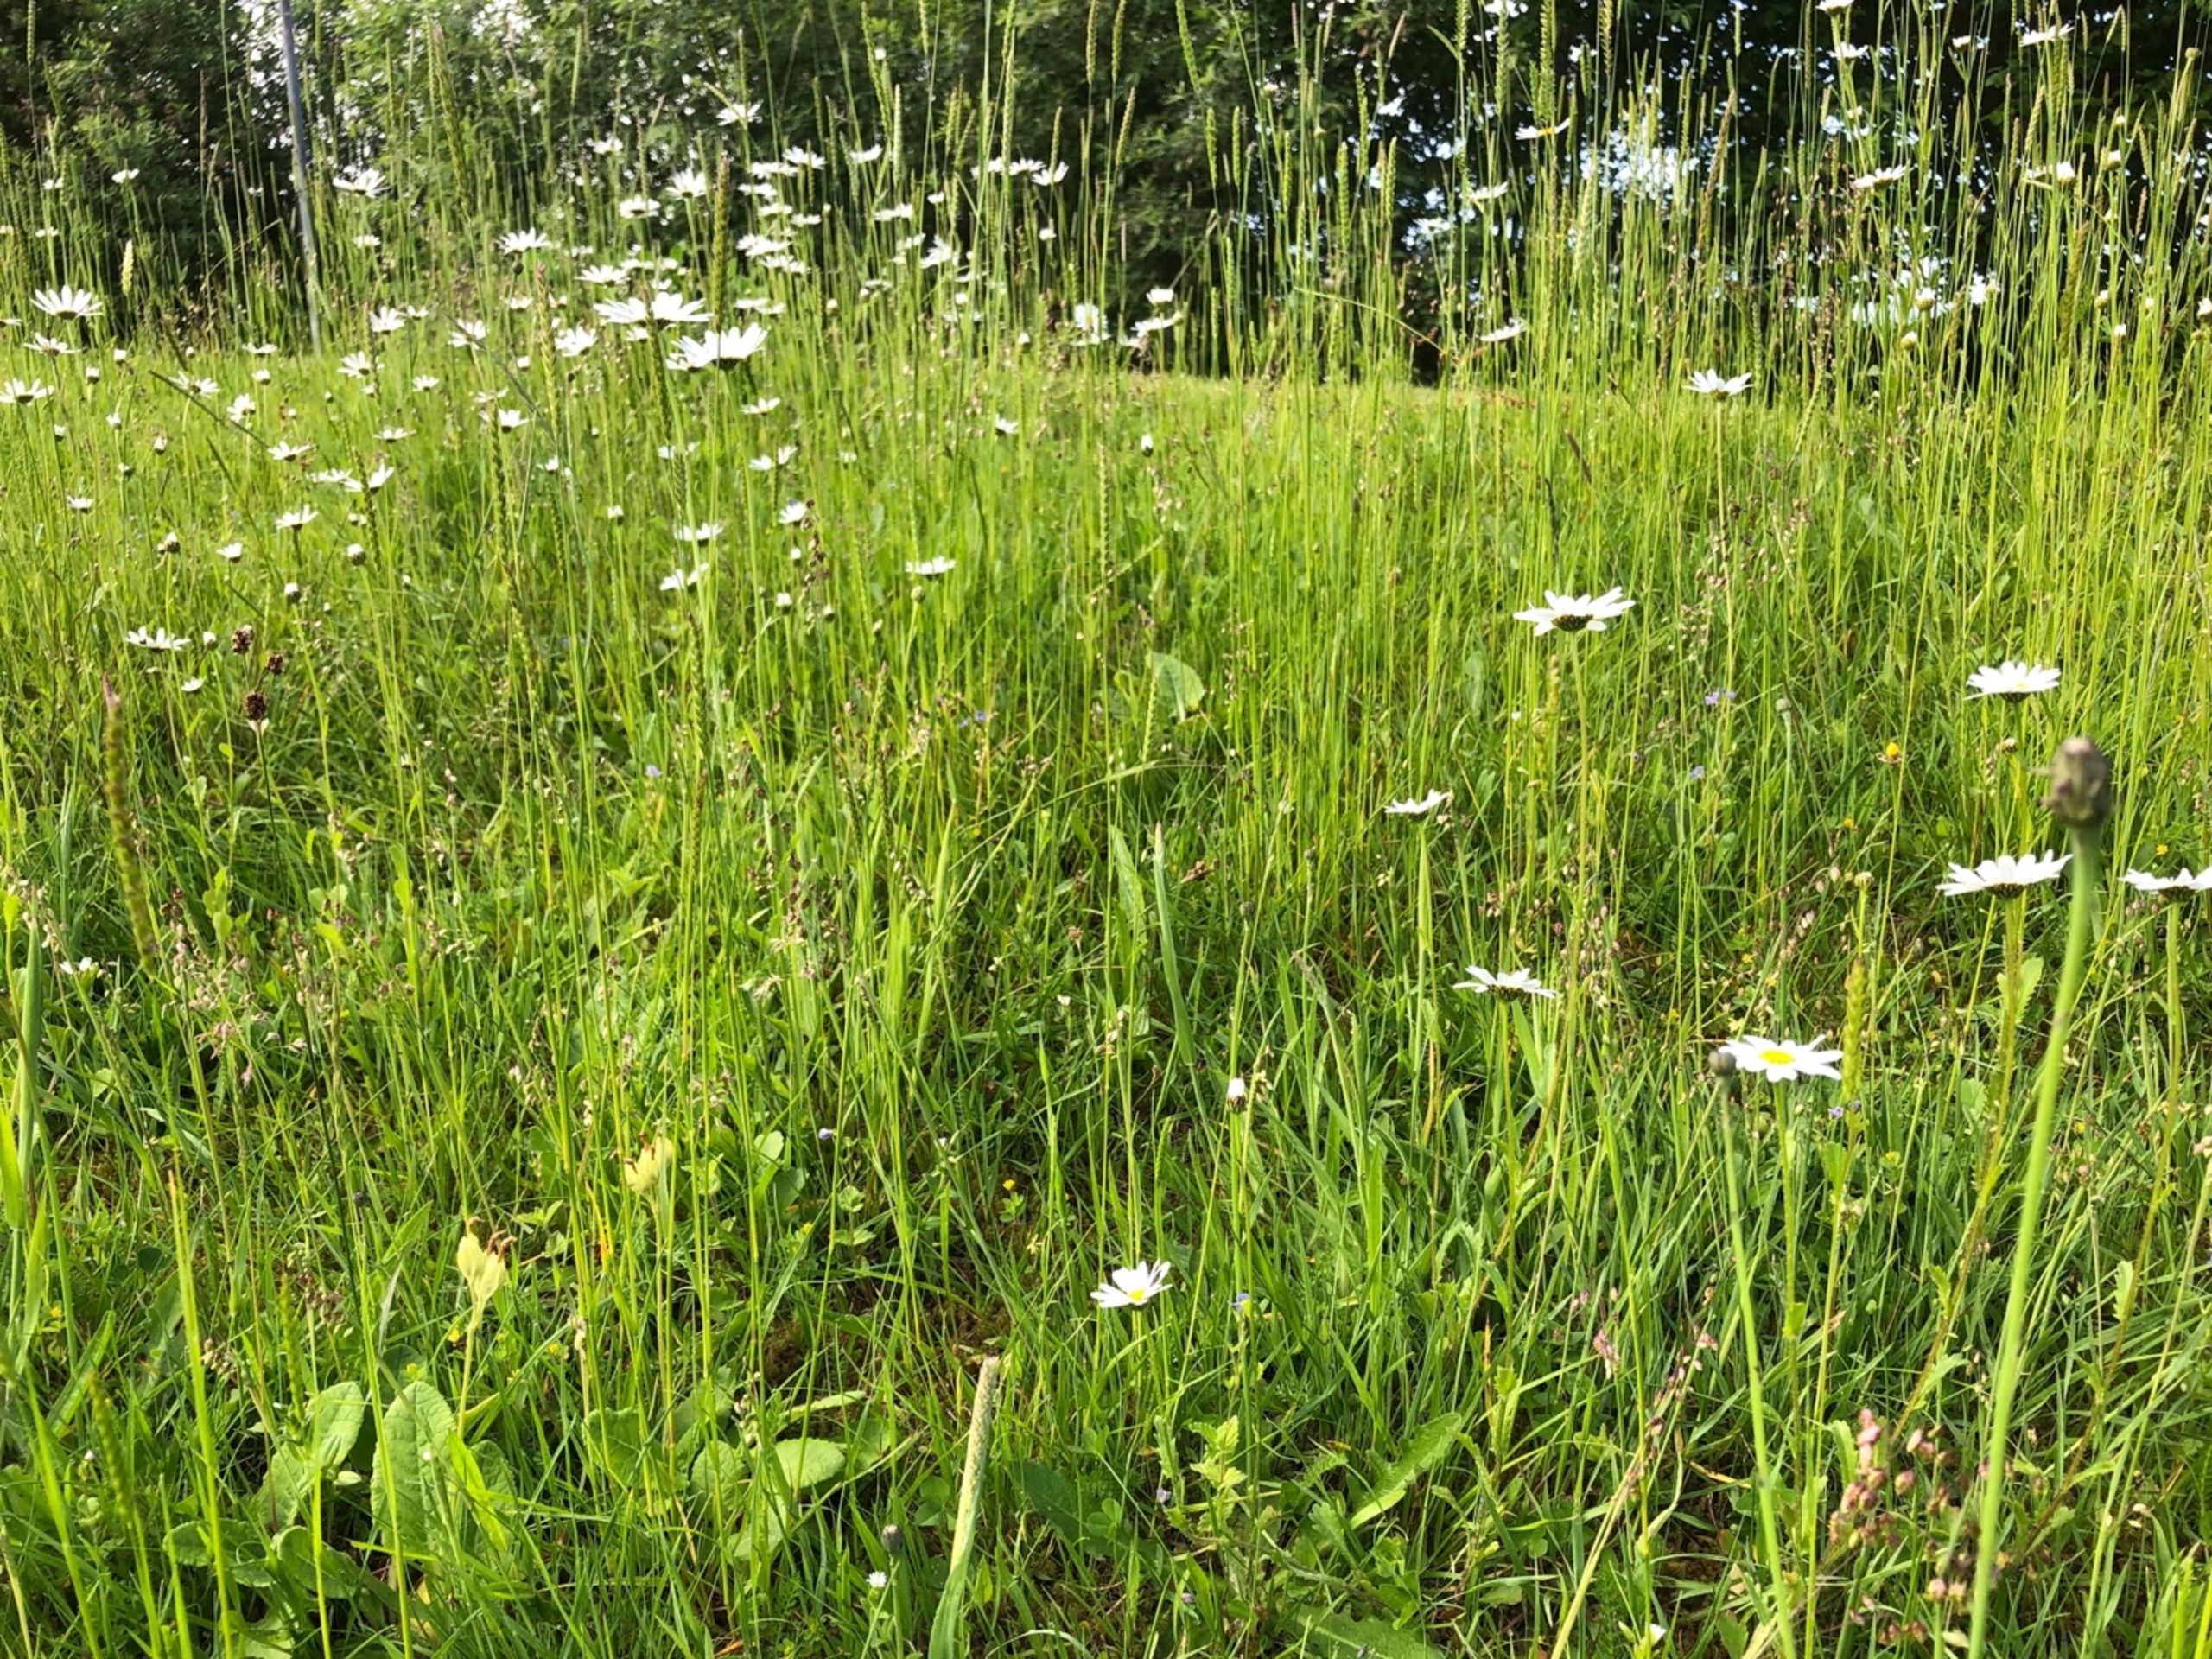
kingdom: Plantae
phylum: Tracheophyta
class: Liliopsida
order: Poales
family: Poaceae
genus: Briza
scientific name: Briza media
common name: Hjertegræs
